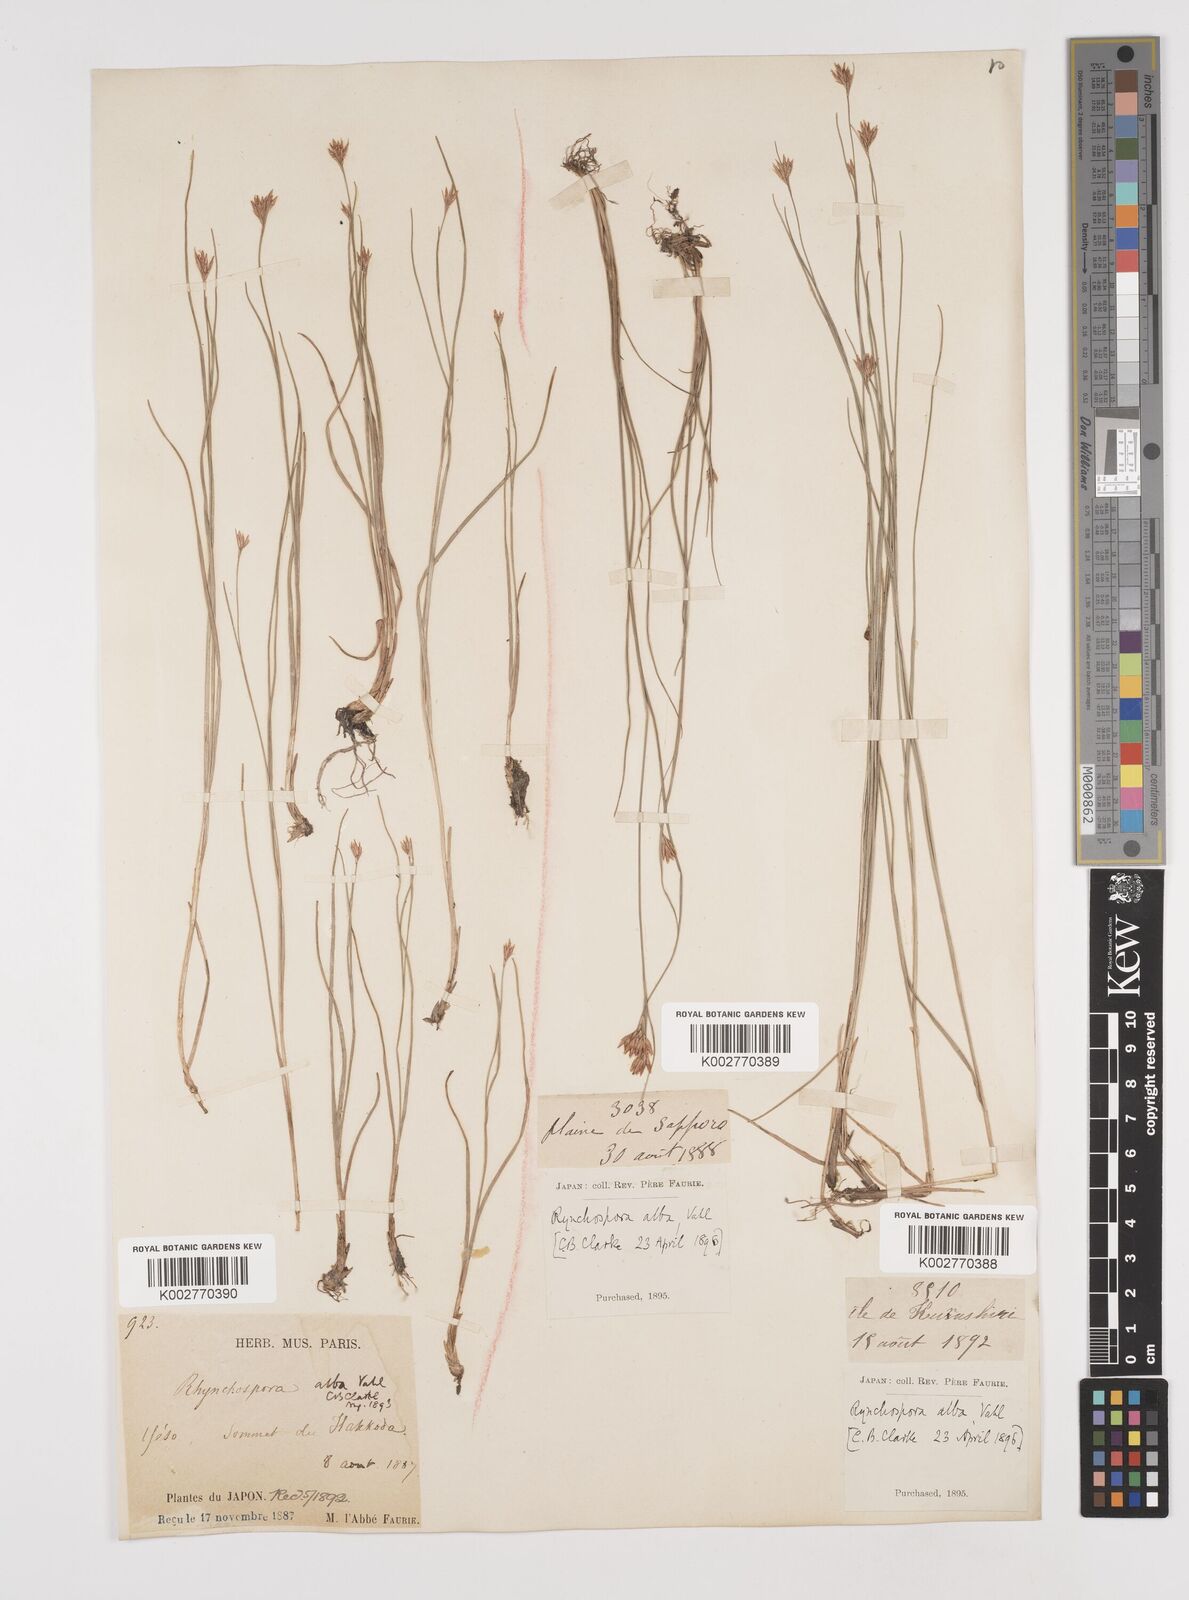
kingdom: Plantae
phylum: Tracheophyta
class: Liliopsida
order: Poales
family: Cyperaceae
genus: Rhynchospora
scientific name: Rhynchospora alba
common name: White beak-sedge
